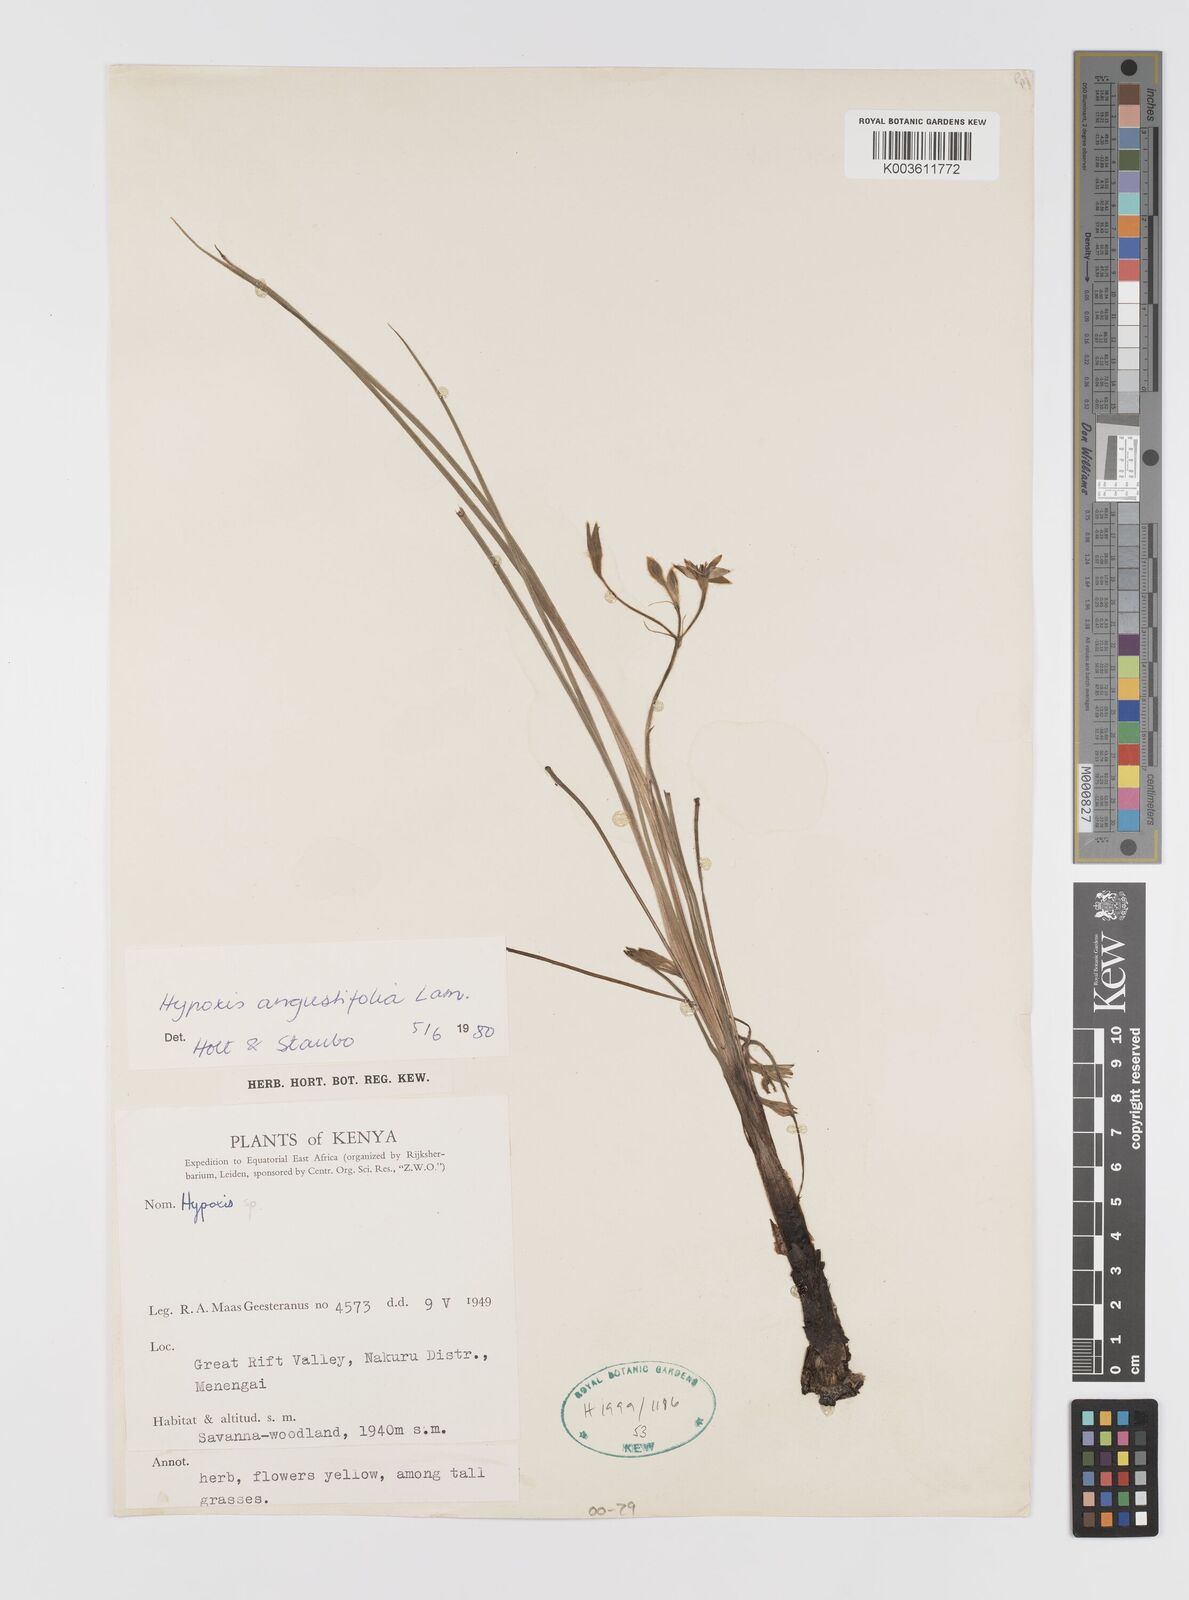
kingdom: Plantae
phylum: Tracheophyta
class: Liliopsida
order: Asparagales
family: Hypoxidaceae
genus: Hypoxis
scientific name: Hypoxis angustifolia
